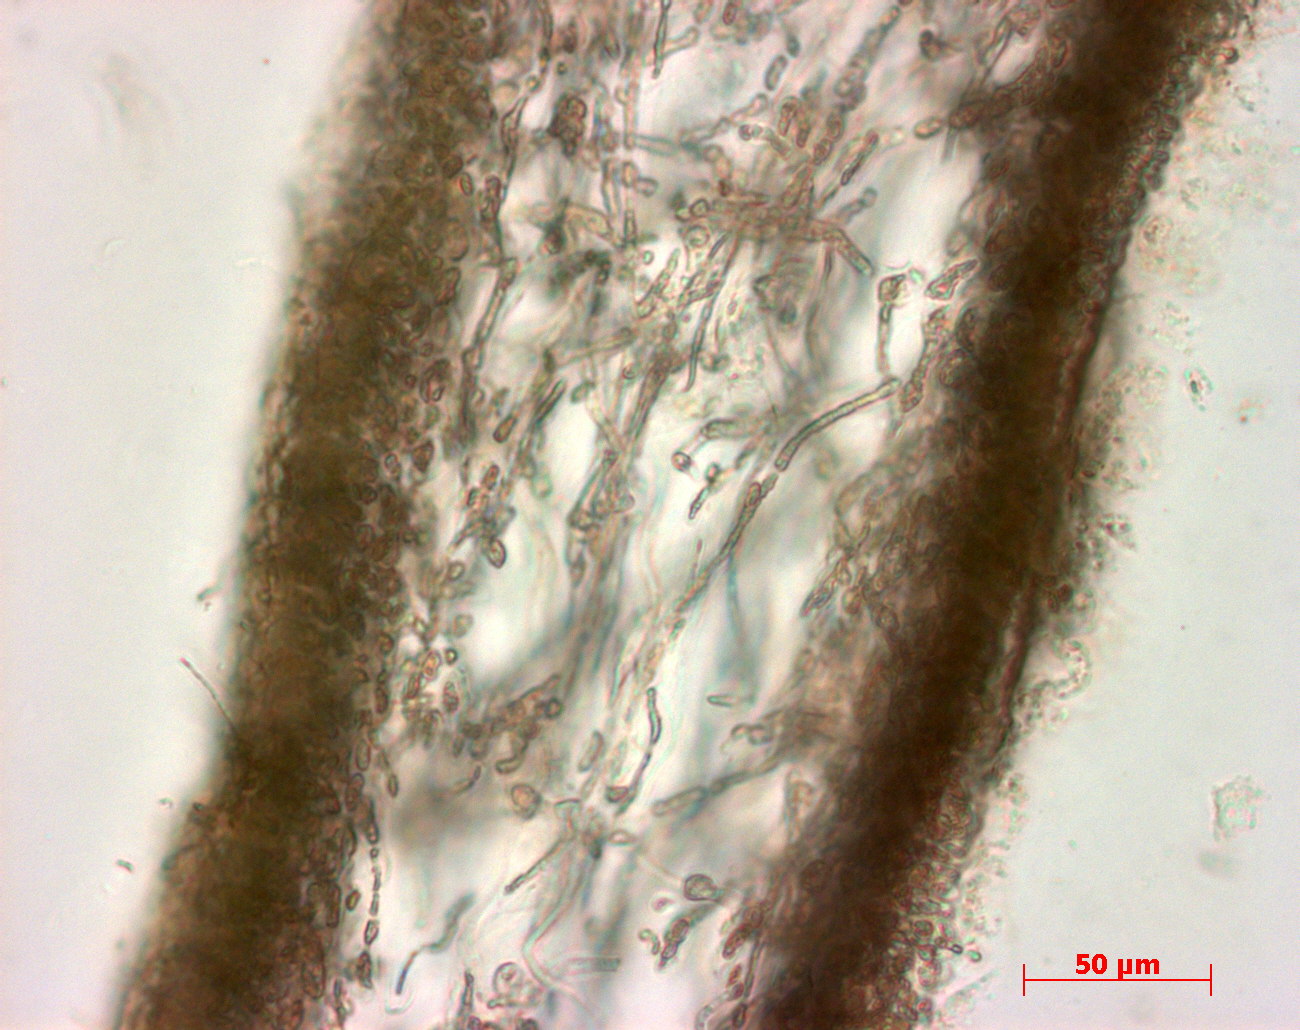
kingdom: Plantae
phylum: Rhodophyta
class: Florideophyceae
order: Halymeniales
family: Halymeniaceae
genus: Cryptonemia
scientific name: Cryptonemia latissima
